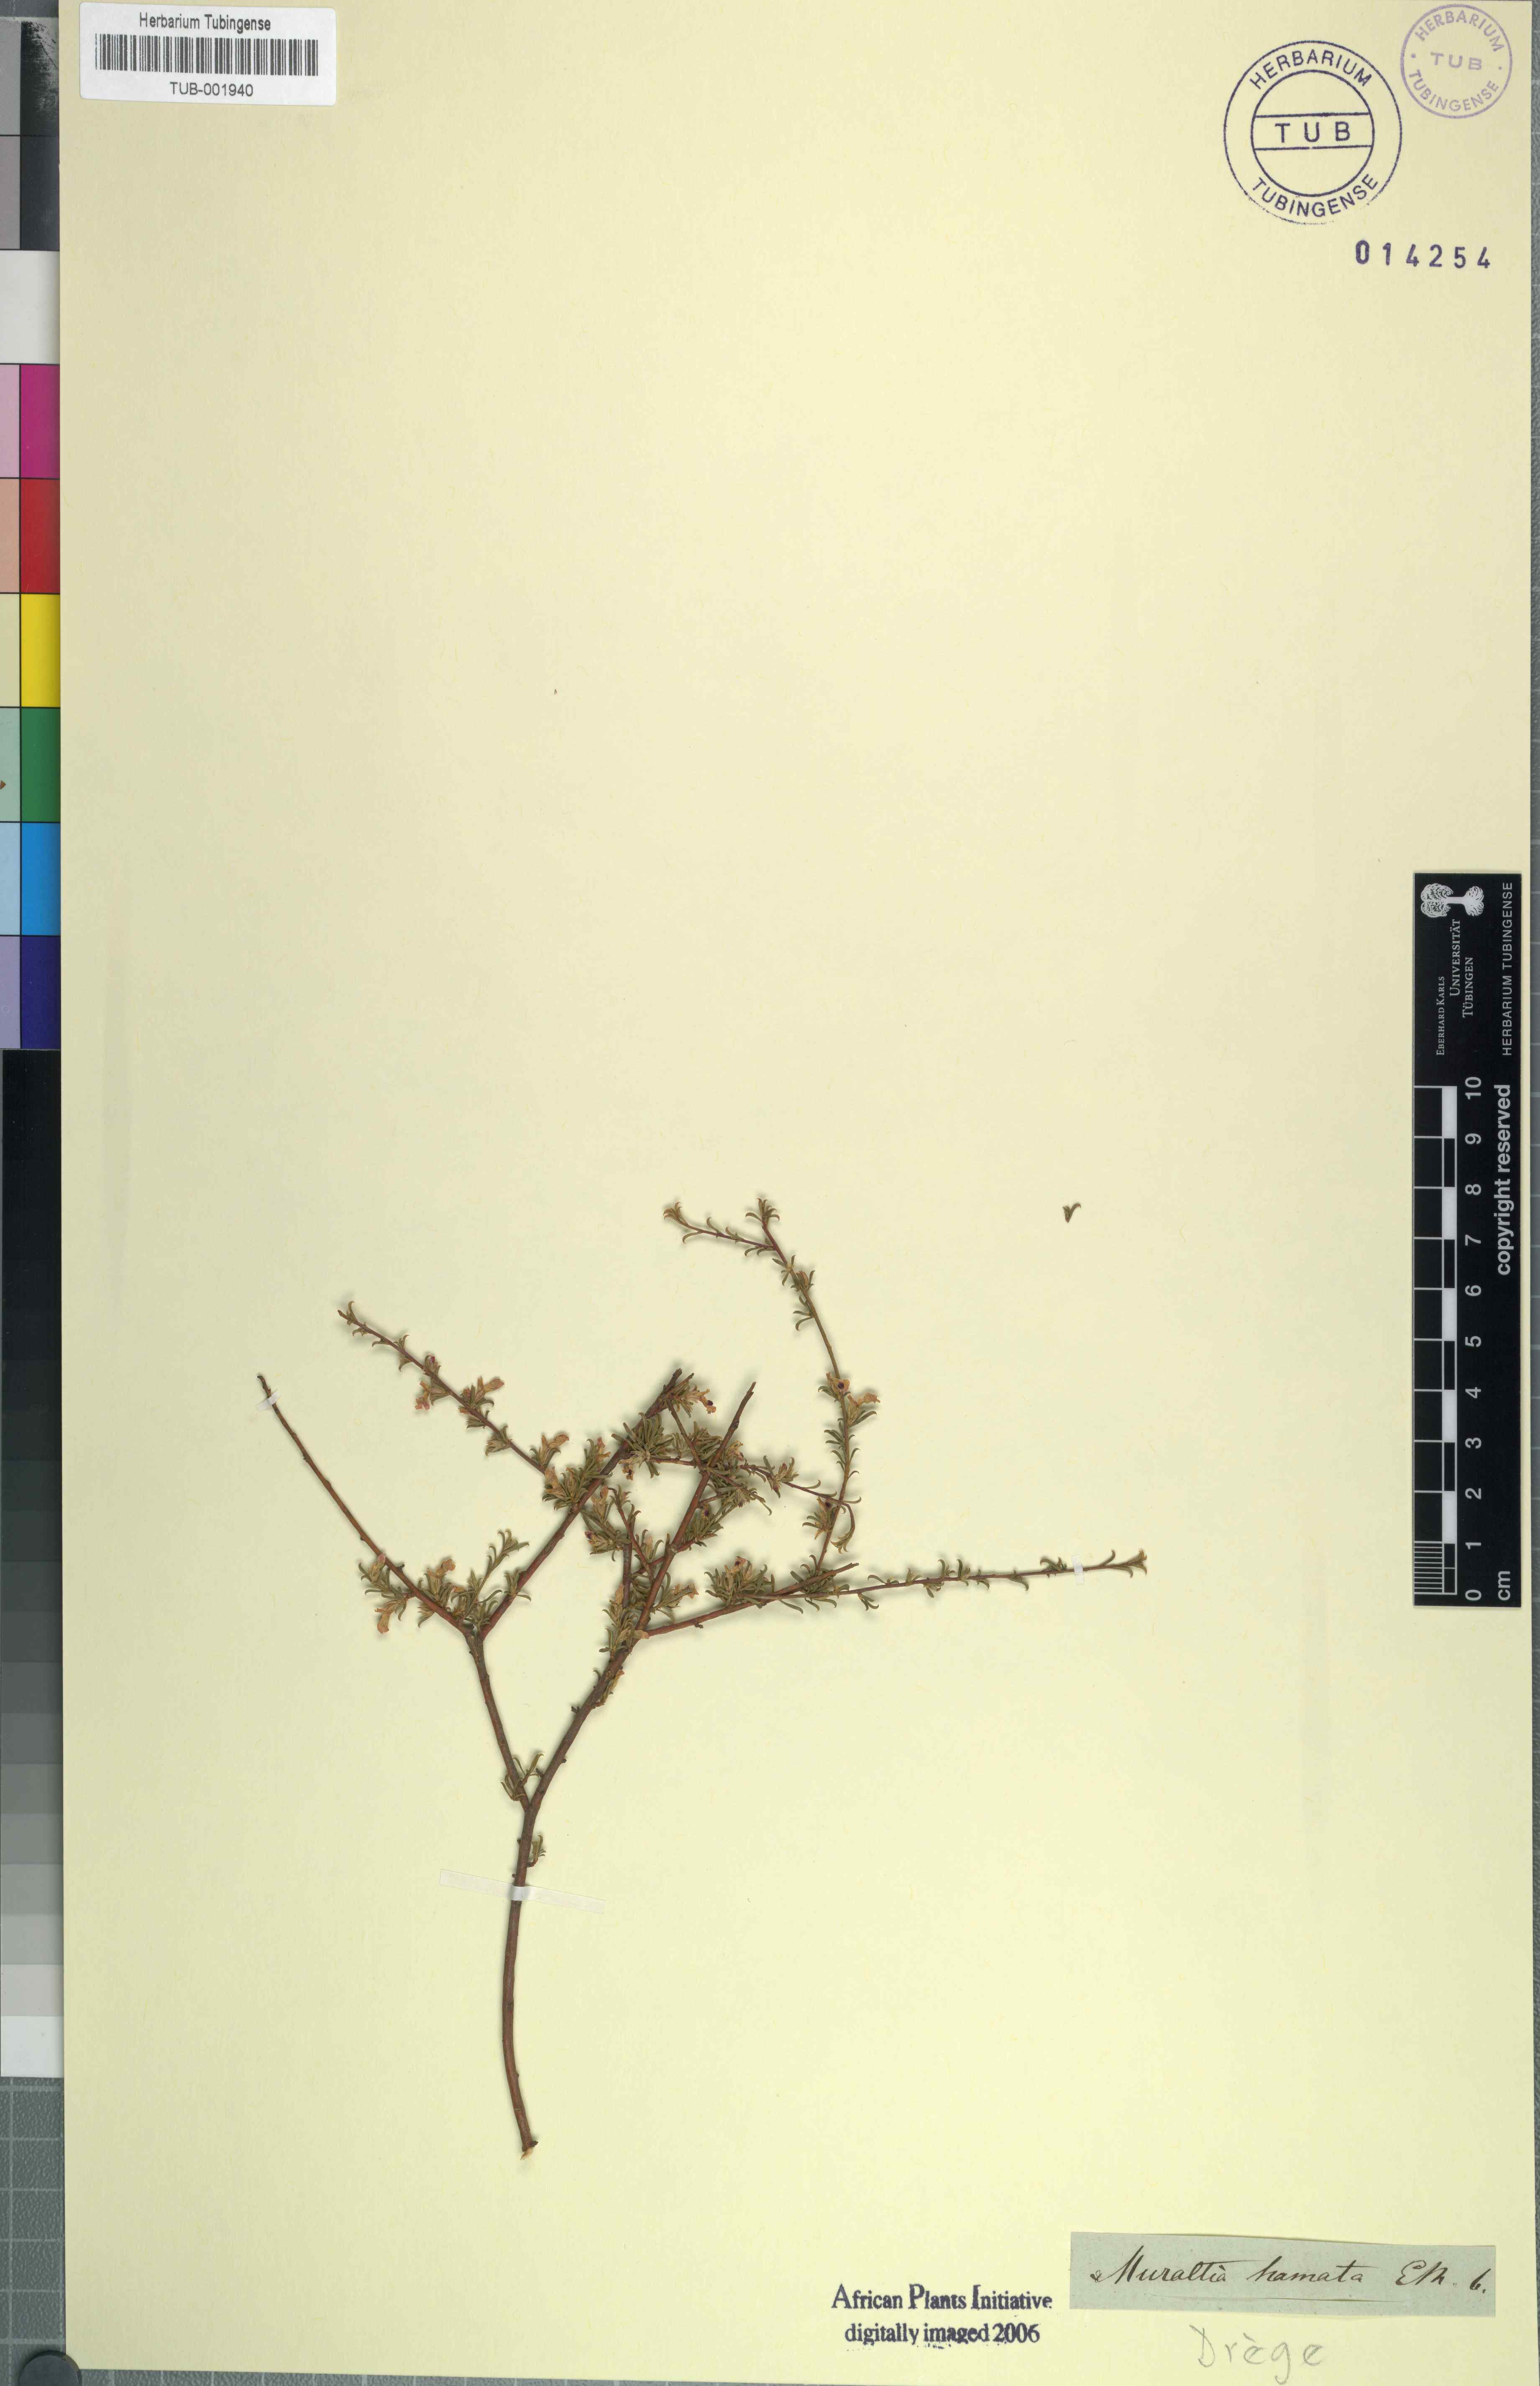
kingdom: Plantae
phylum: Tracheophyta
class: Magnoliopsida
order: Fabales
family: Polygalaceae
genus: Muraltia
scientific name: Muraltia macrocarpa
